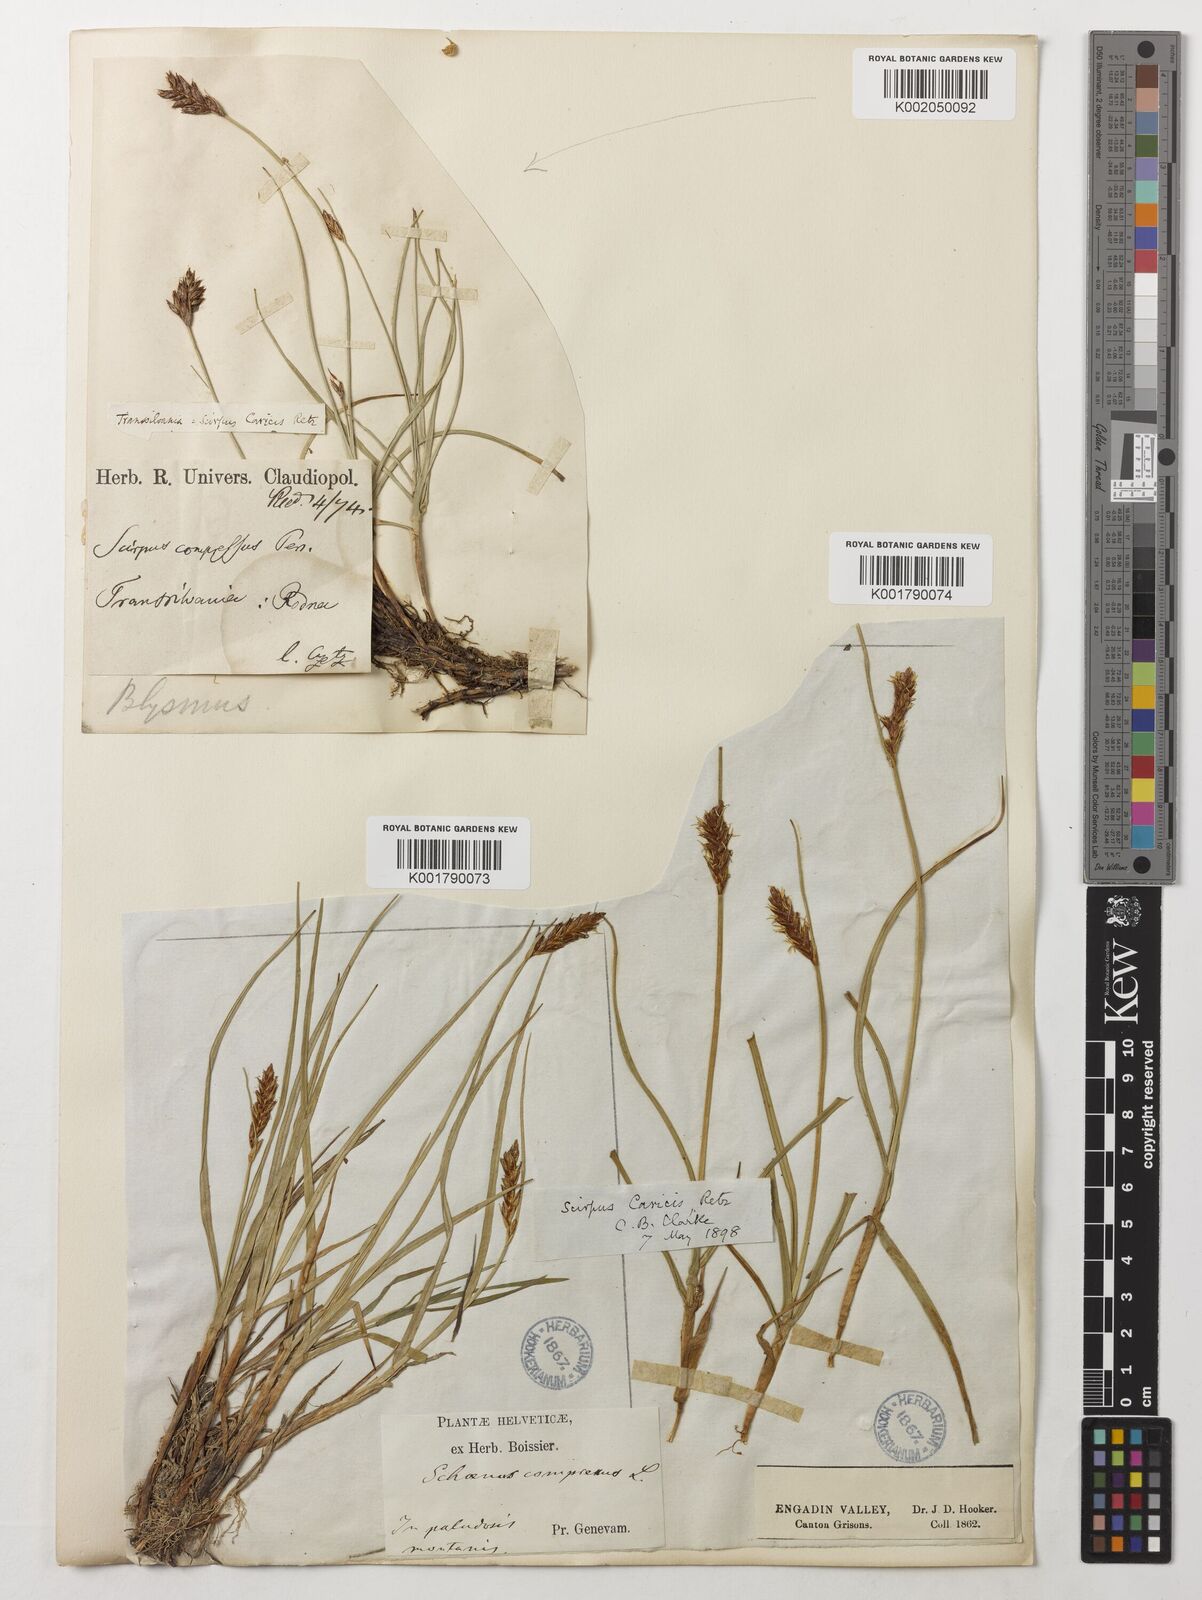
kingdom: Plantae
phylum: Tracheophyta
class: Liliopsida
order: Poales
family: Cyperaceae
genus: Blysmus
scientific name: Blysmus compressus
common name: Flat-sedge
